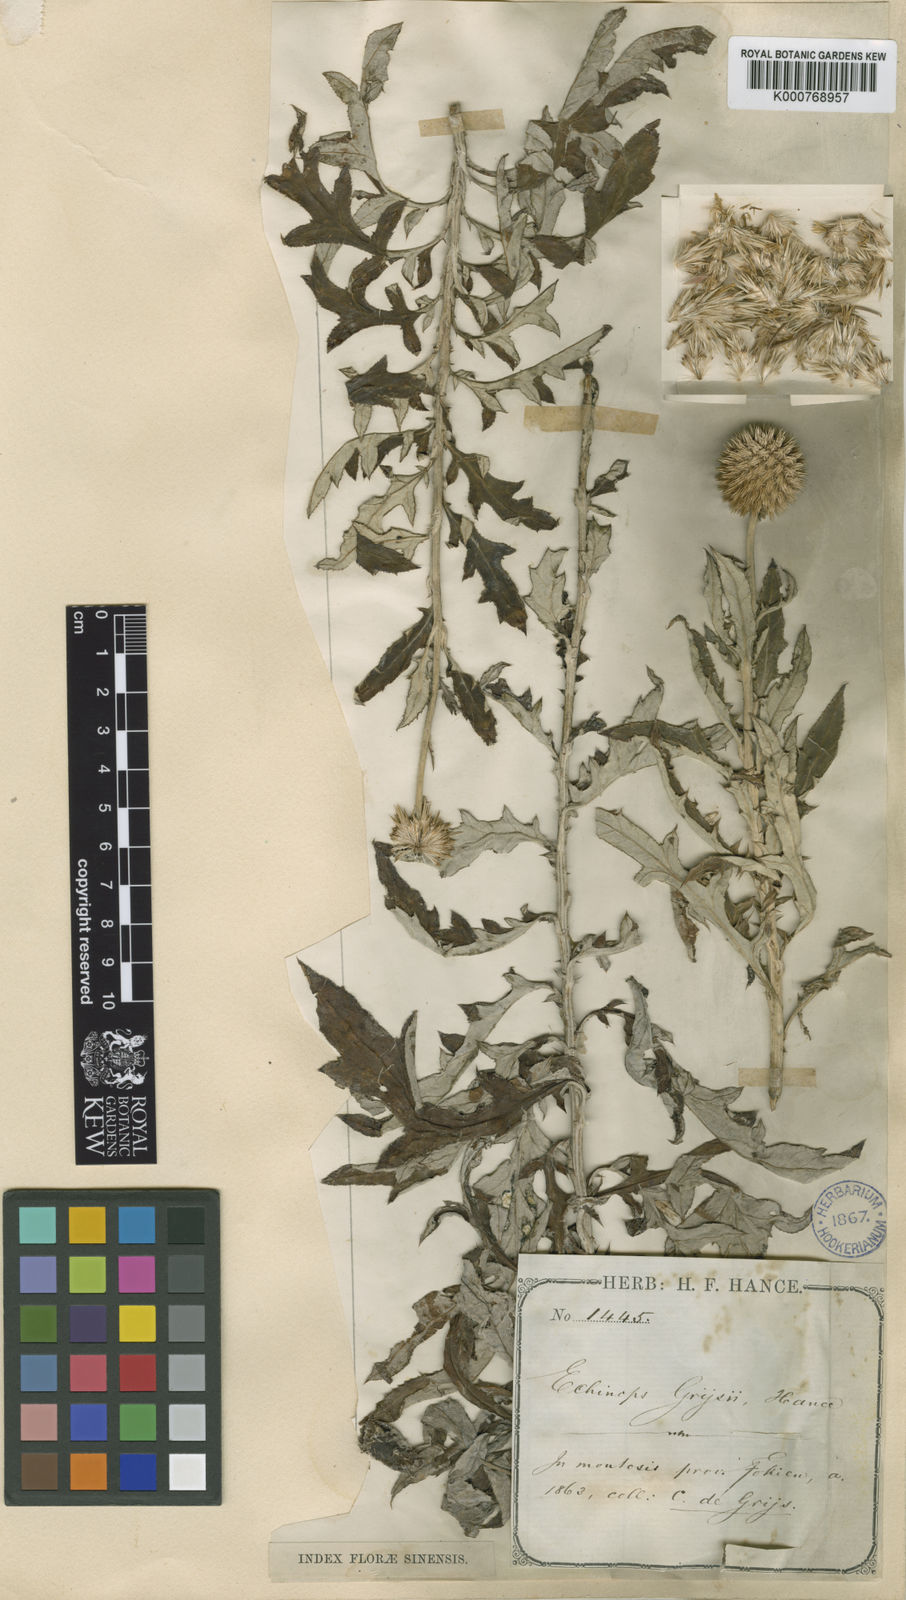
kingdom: Plantae
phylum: Tracheophyta
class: Magnoliopsida
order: Asterales
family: Asteraceae
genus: Echinops
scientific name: Echinops davuricus
